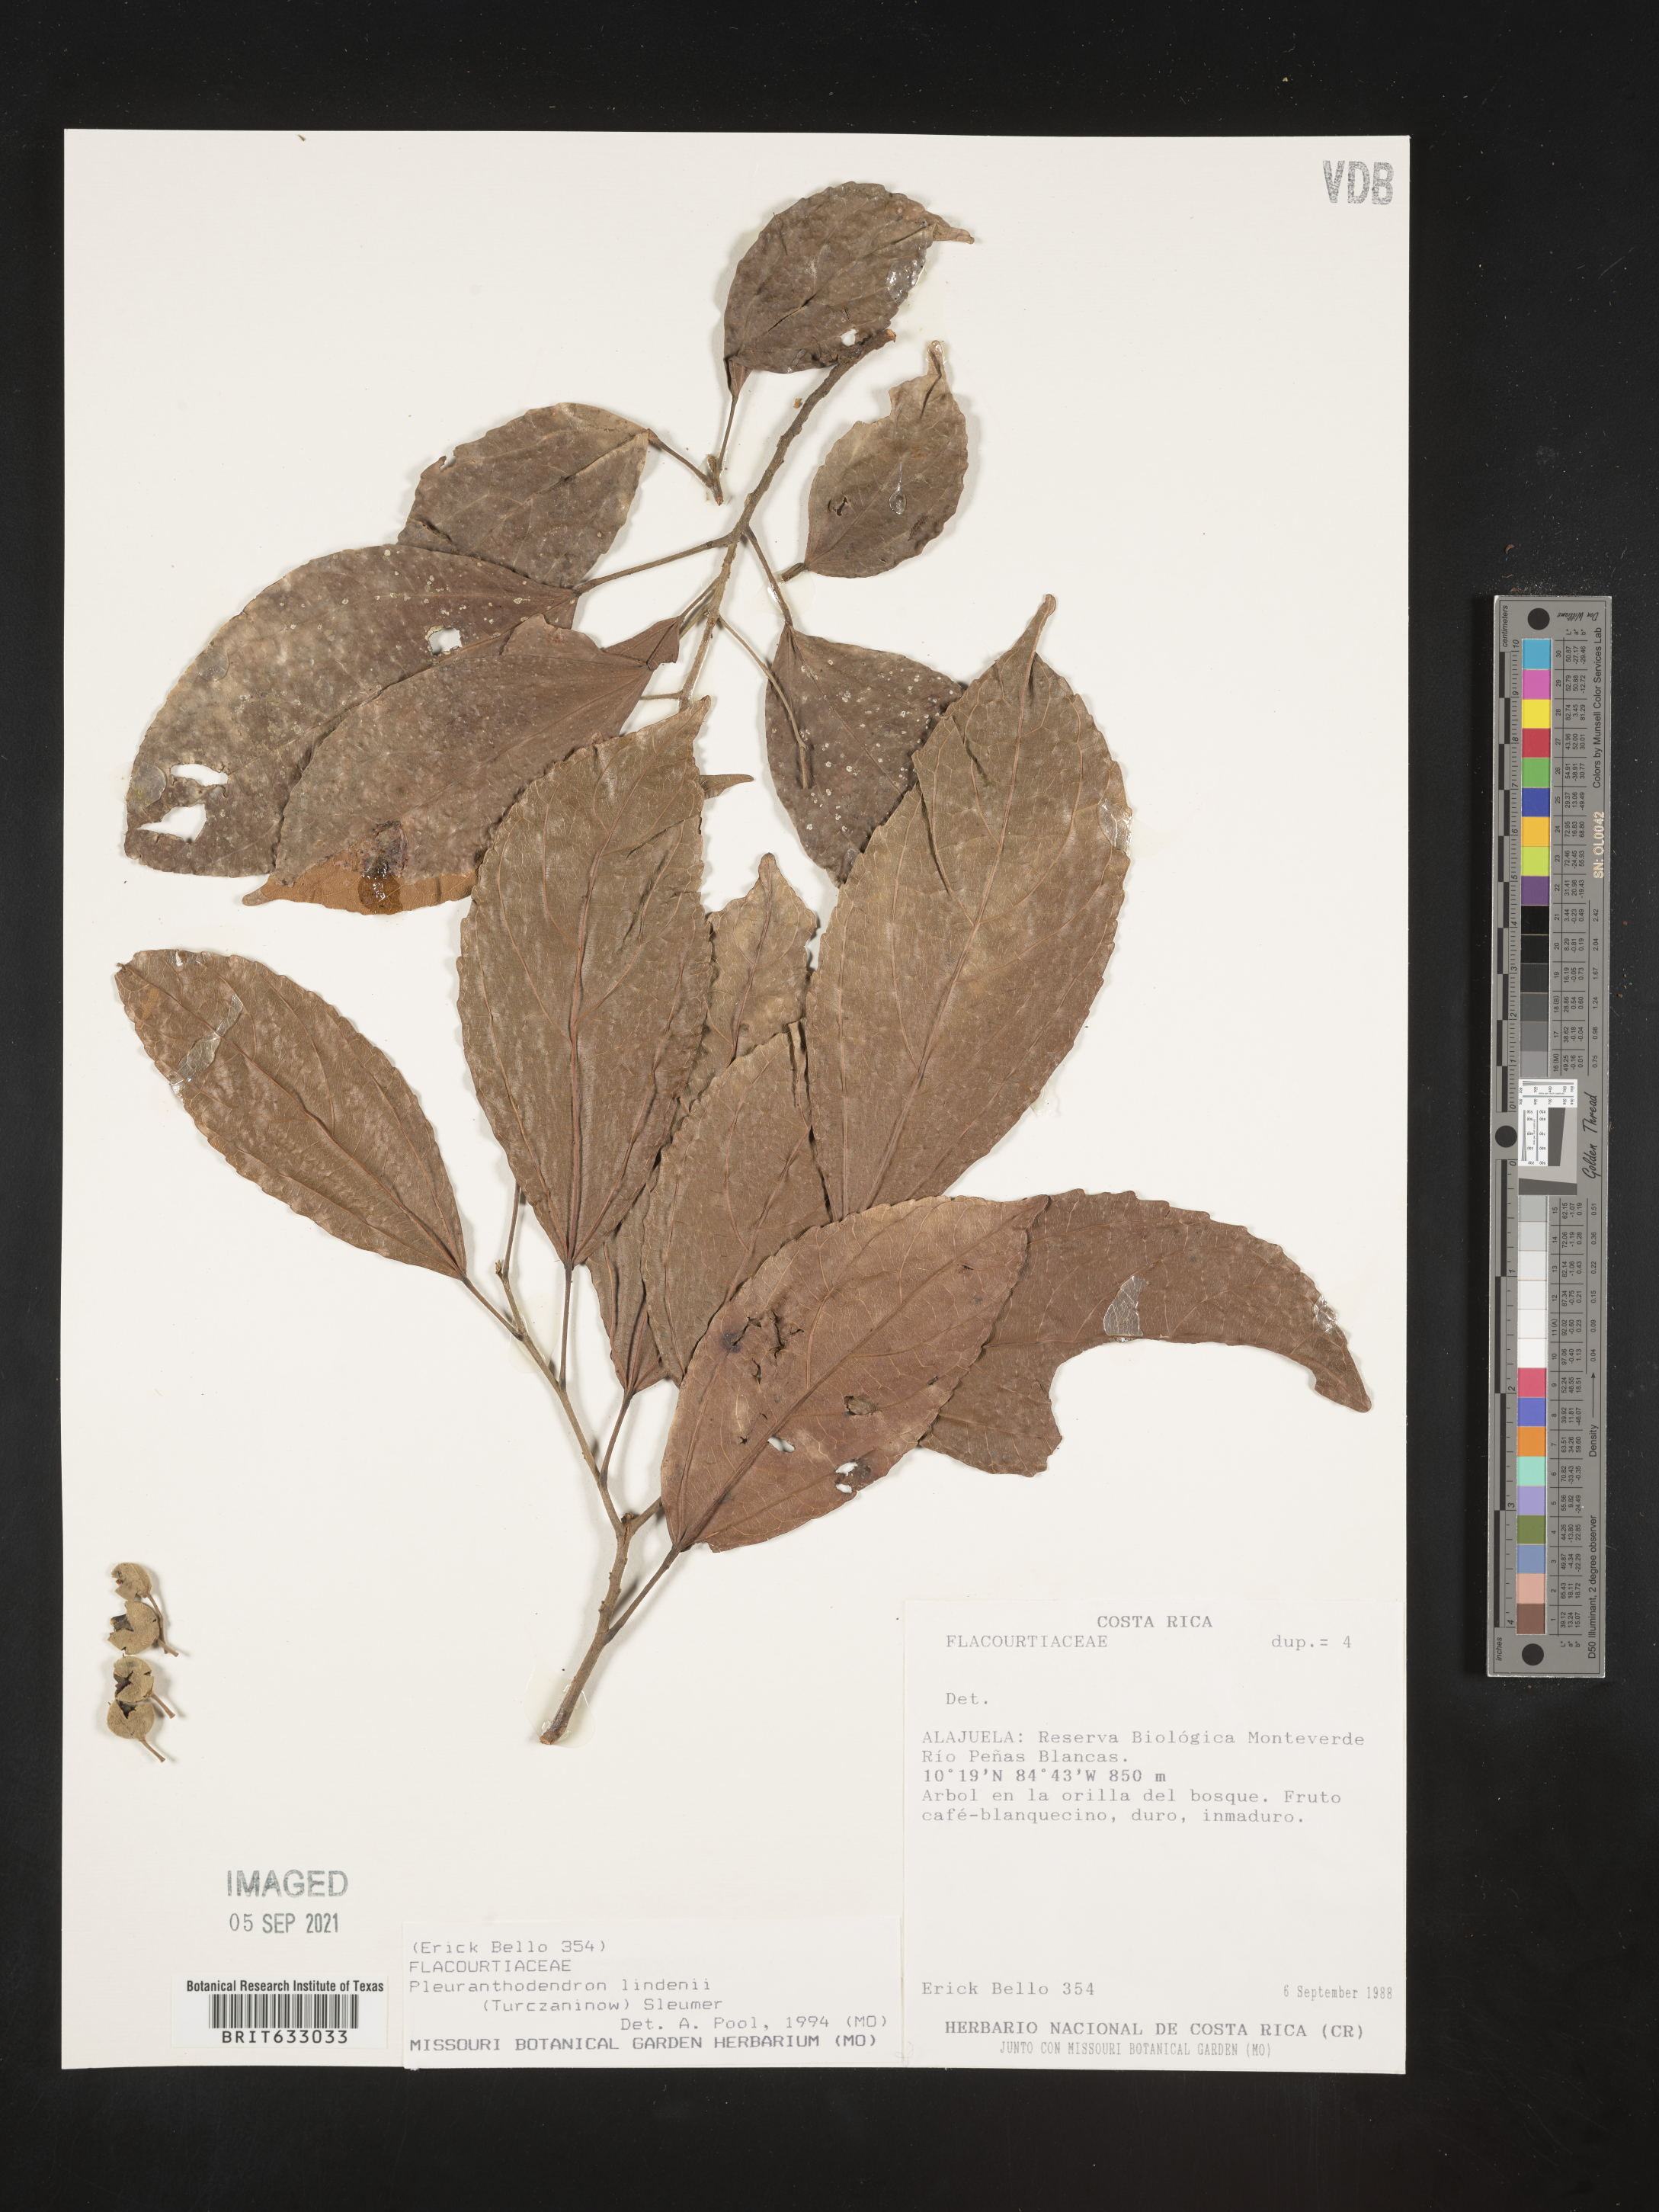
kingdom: Plantae
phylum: Tracheophyta
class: Magnoliopsida
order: Malpighiales
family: Salicaceae
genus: Pleuranthodendron
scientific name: Pleuranthodendron
